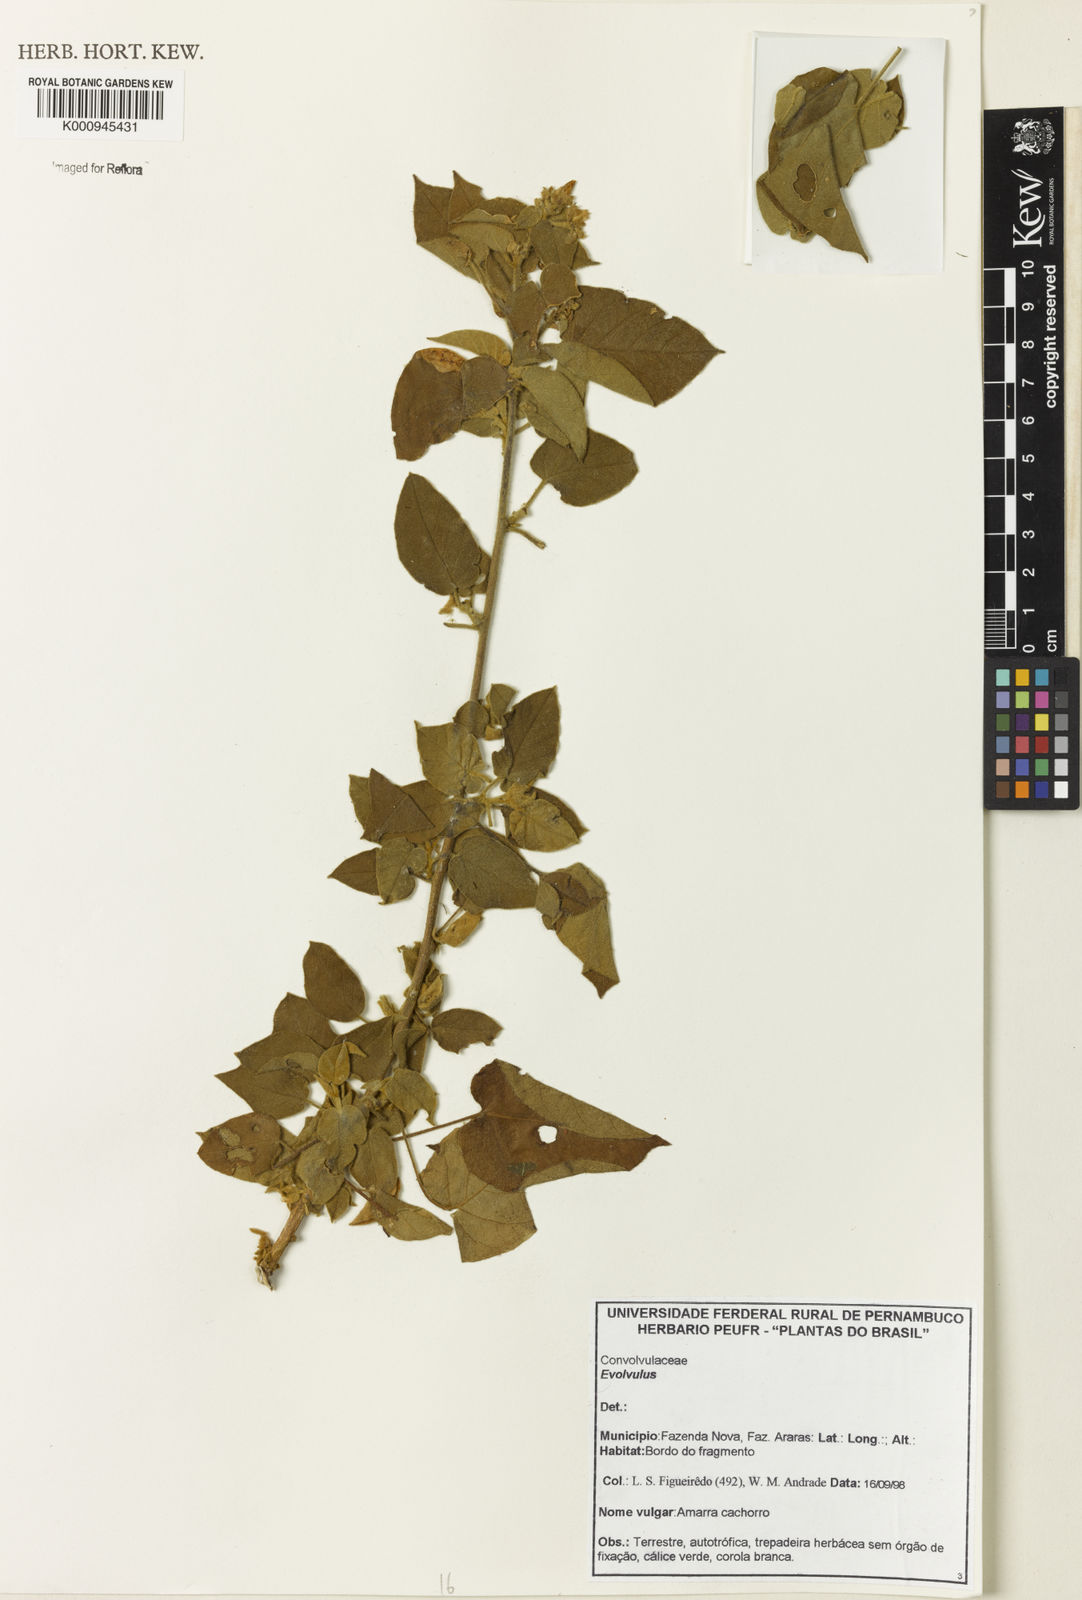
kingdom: Plantae
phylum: Tracheophyta
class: Magnoliopsida
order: Solanales
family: Convolvulaceae
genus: Jacquemontia
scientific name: Jacquemontia
